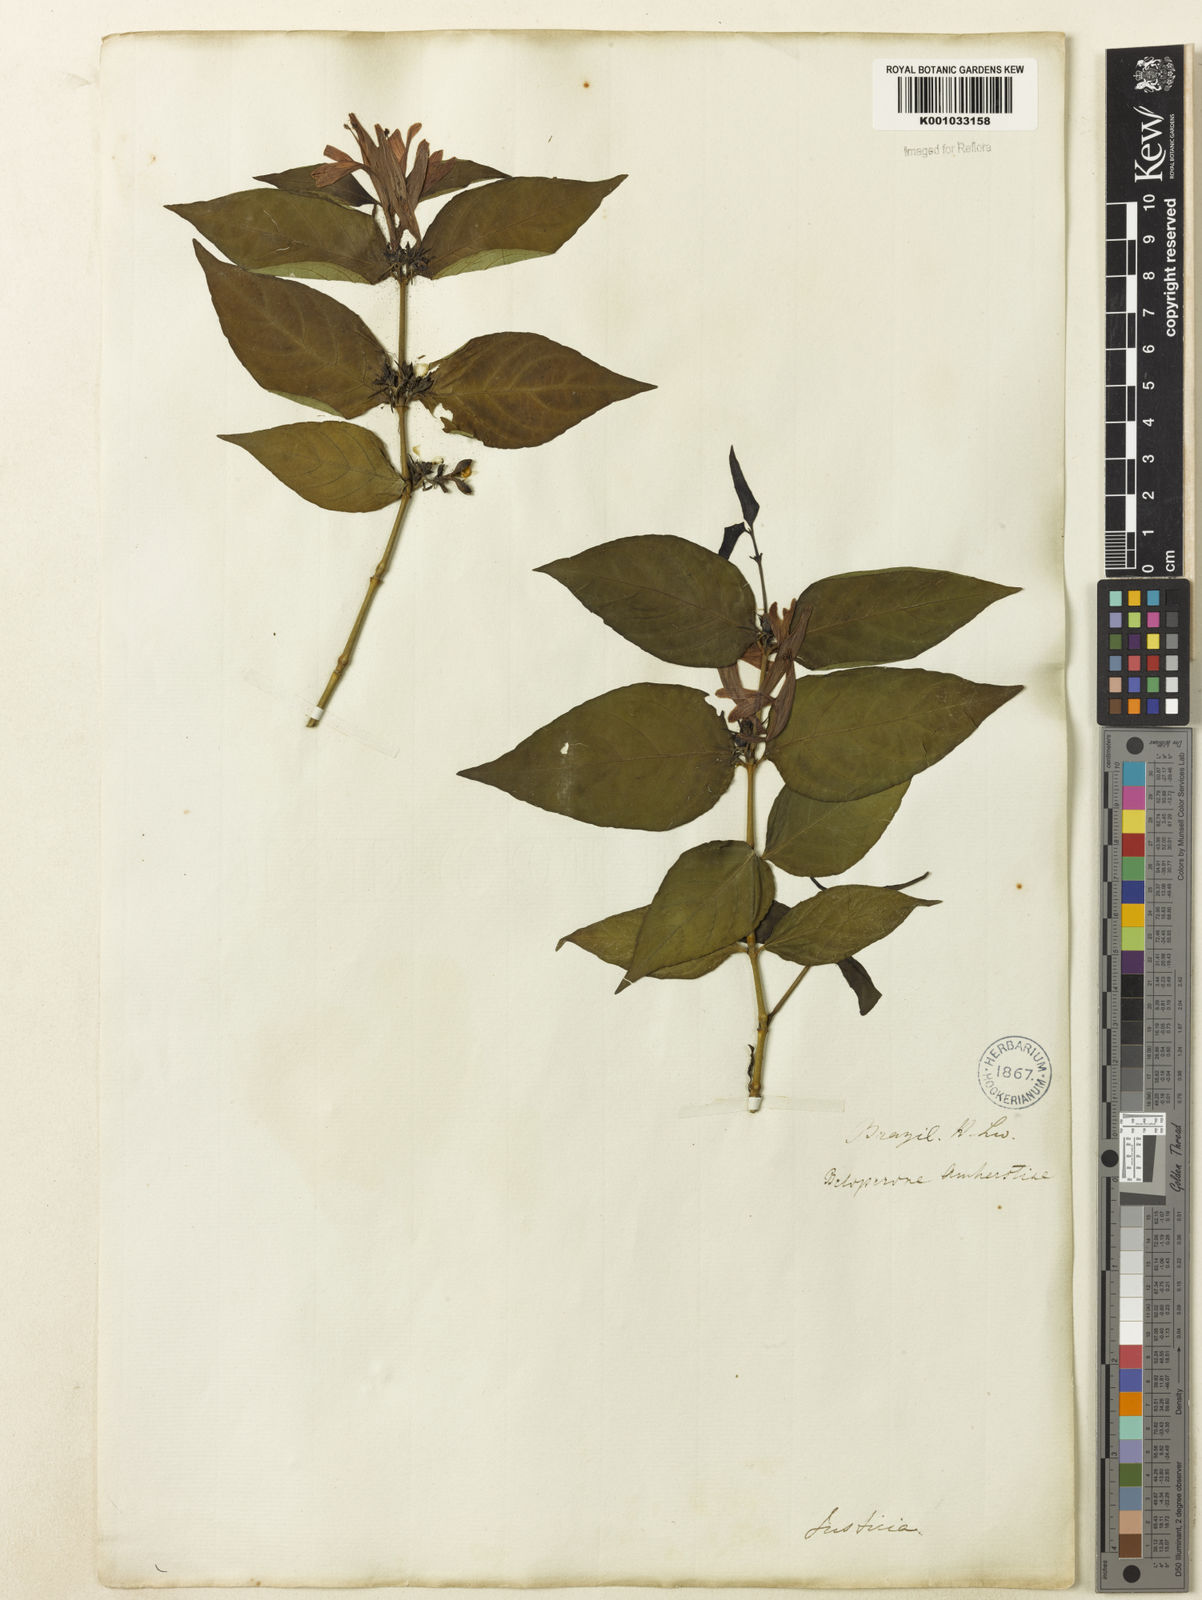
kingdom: Plantae
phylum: Tracheophyta
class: Magnoliopsida
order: Lamiales
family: Acanthaceae
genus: Justicia
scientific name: Justicia brasiliana
